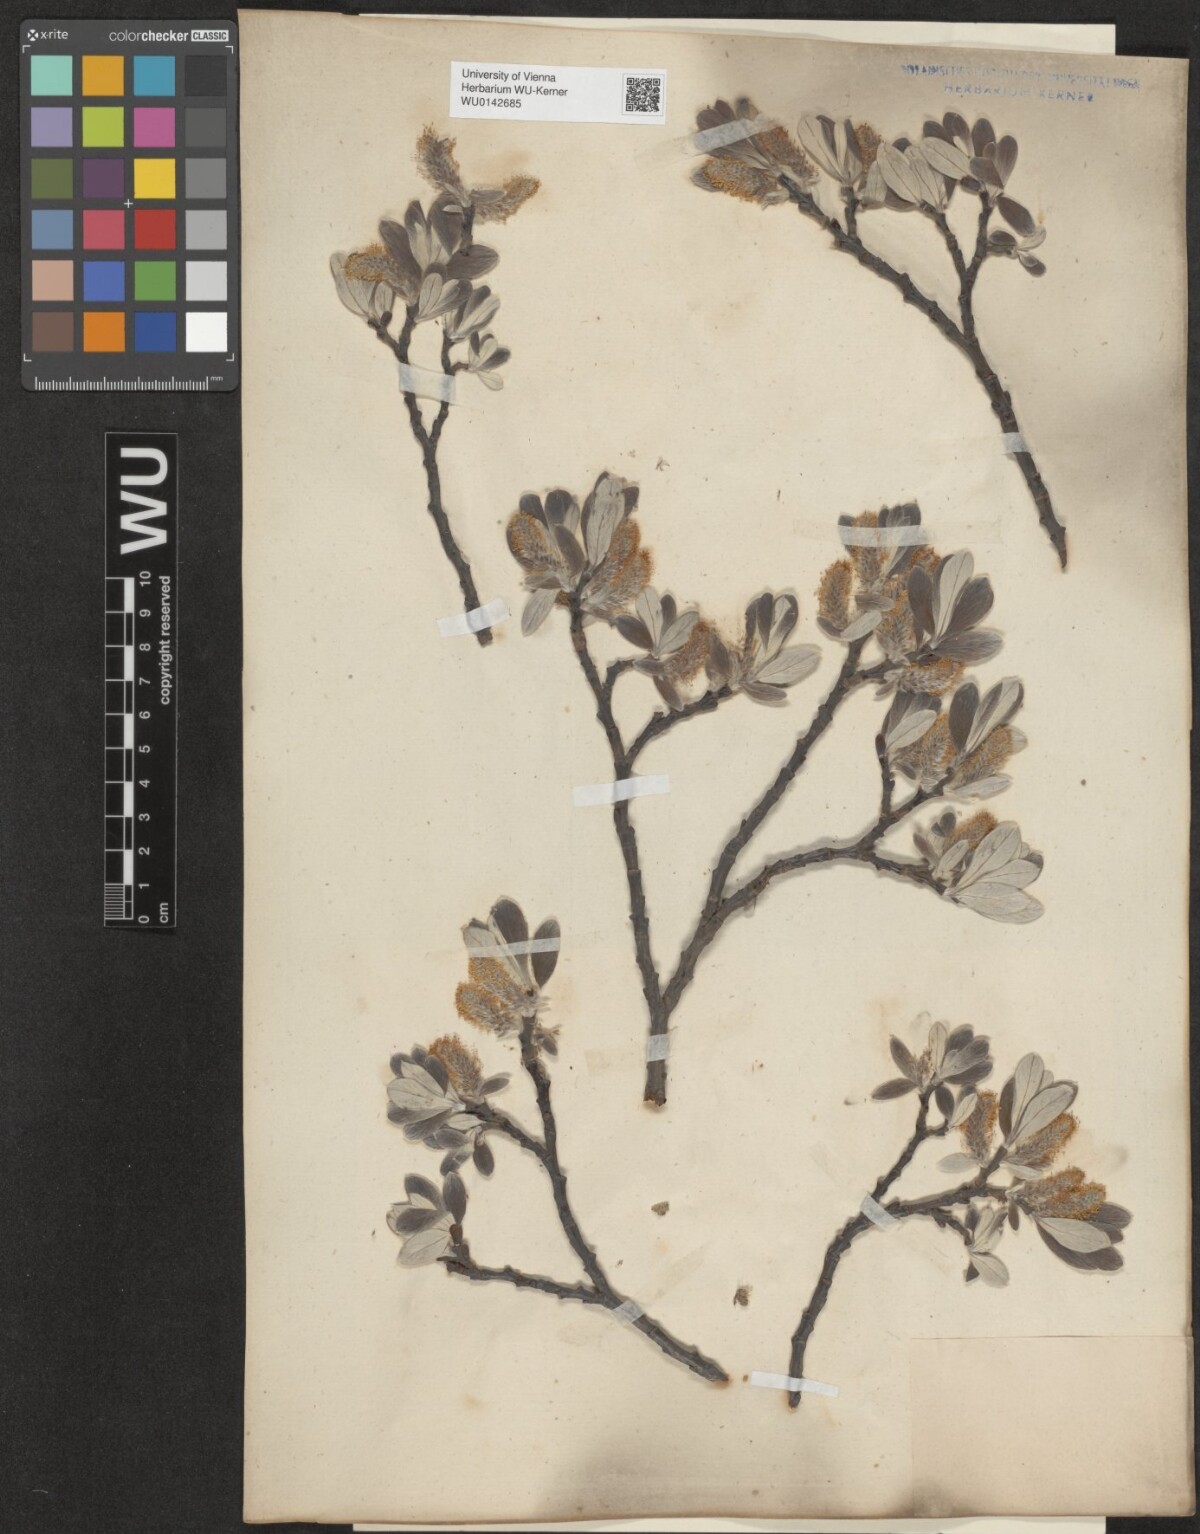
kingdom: Plantae
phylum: Tracheophyta
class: Magnoliopsida
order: Malpighiales
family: Salicaceae
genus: Salix
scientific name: Salix helvetica
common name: Swiss willow
